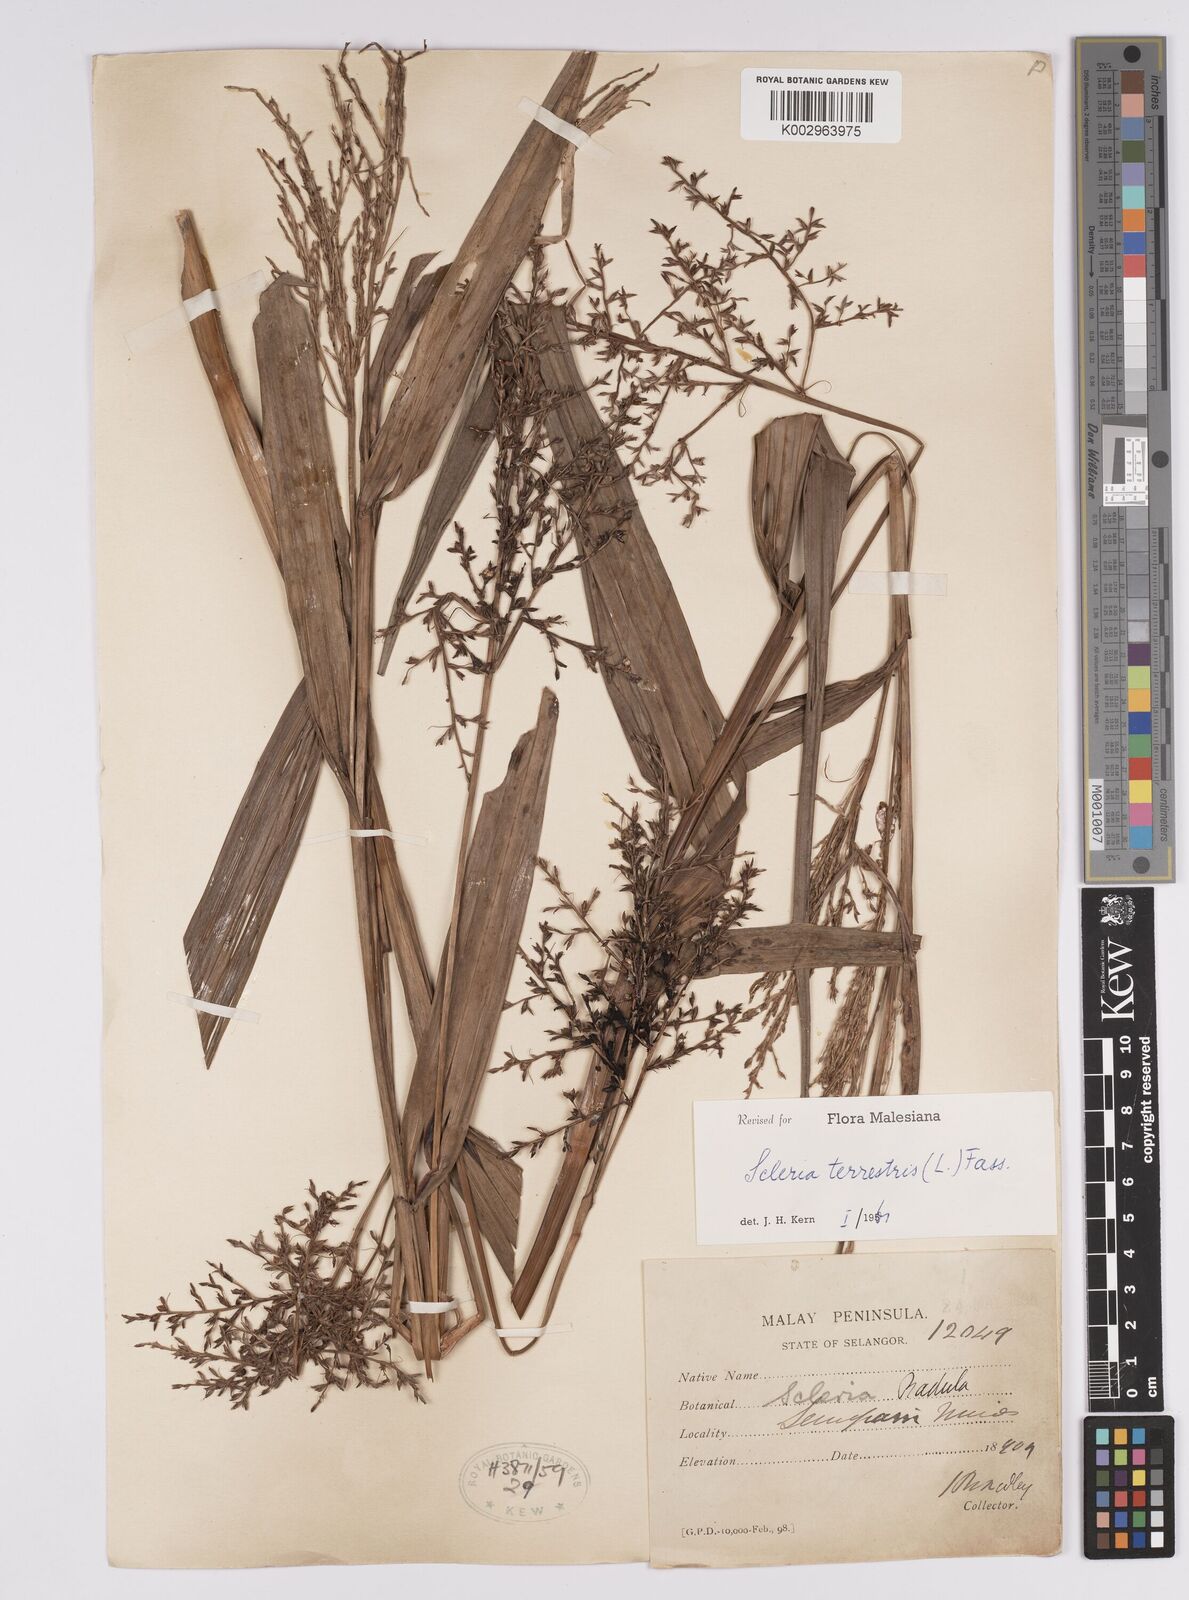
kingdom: Plantae
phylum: Tracheophyta
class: Liliopsida
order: Poales
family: Cyperaceae
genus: Scleria
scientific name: Scleria terrestris
